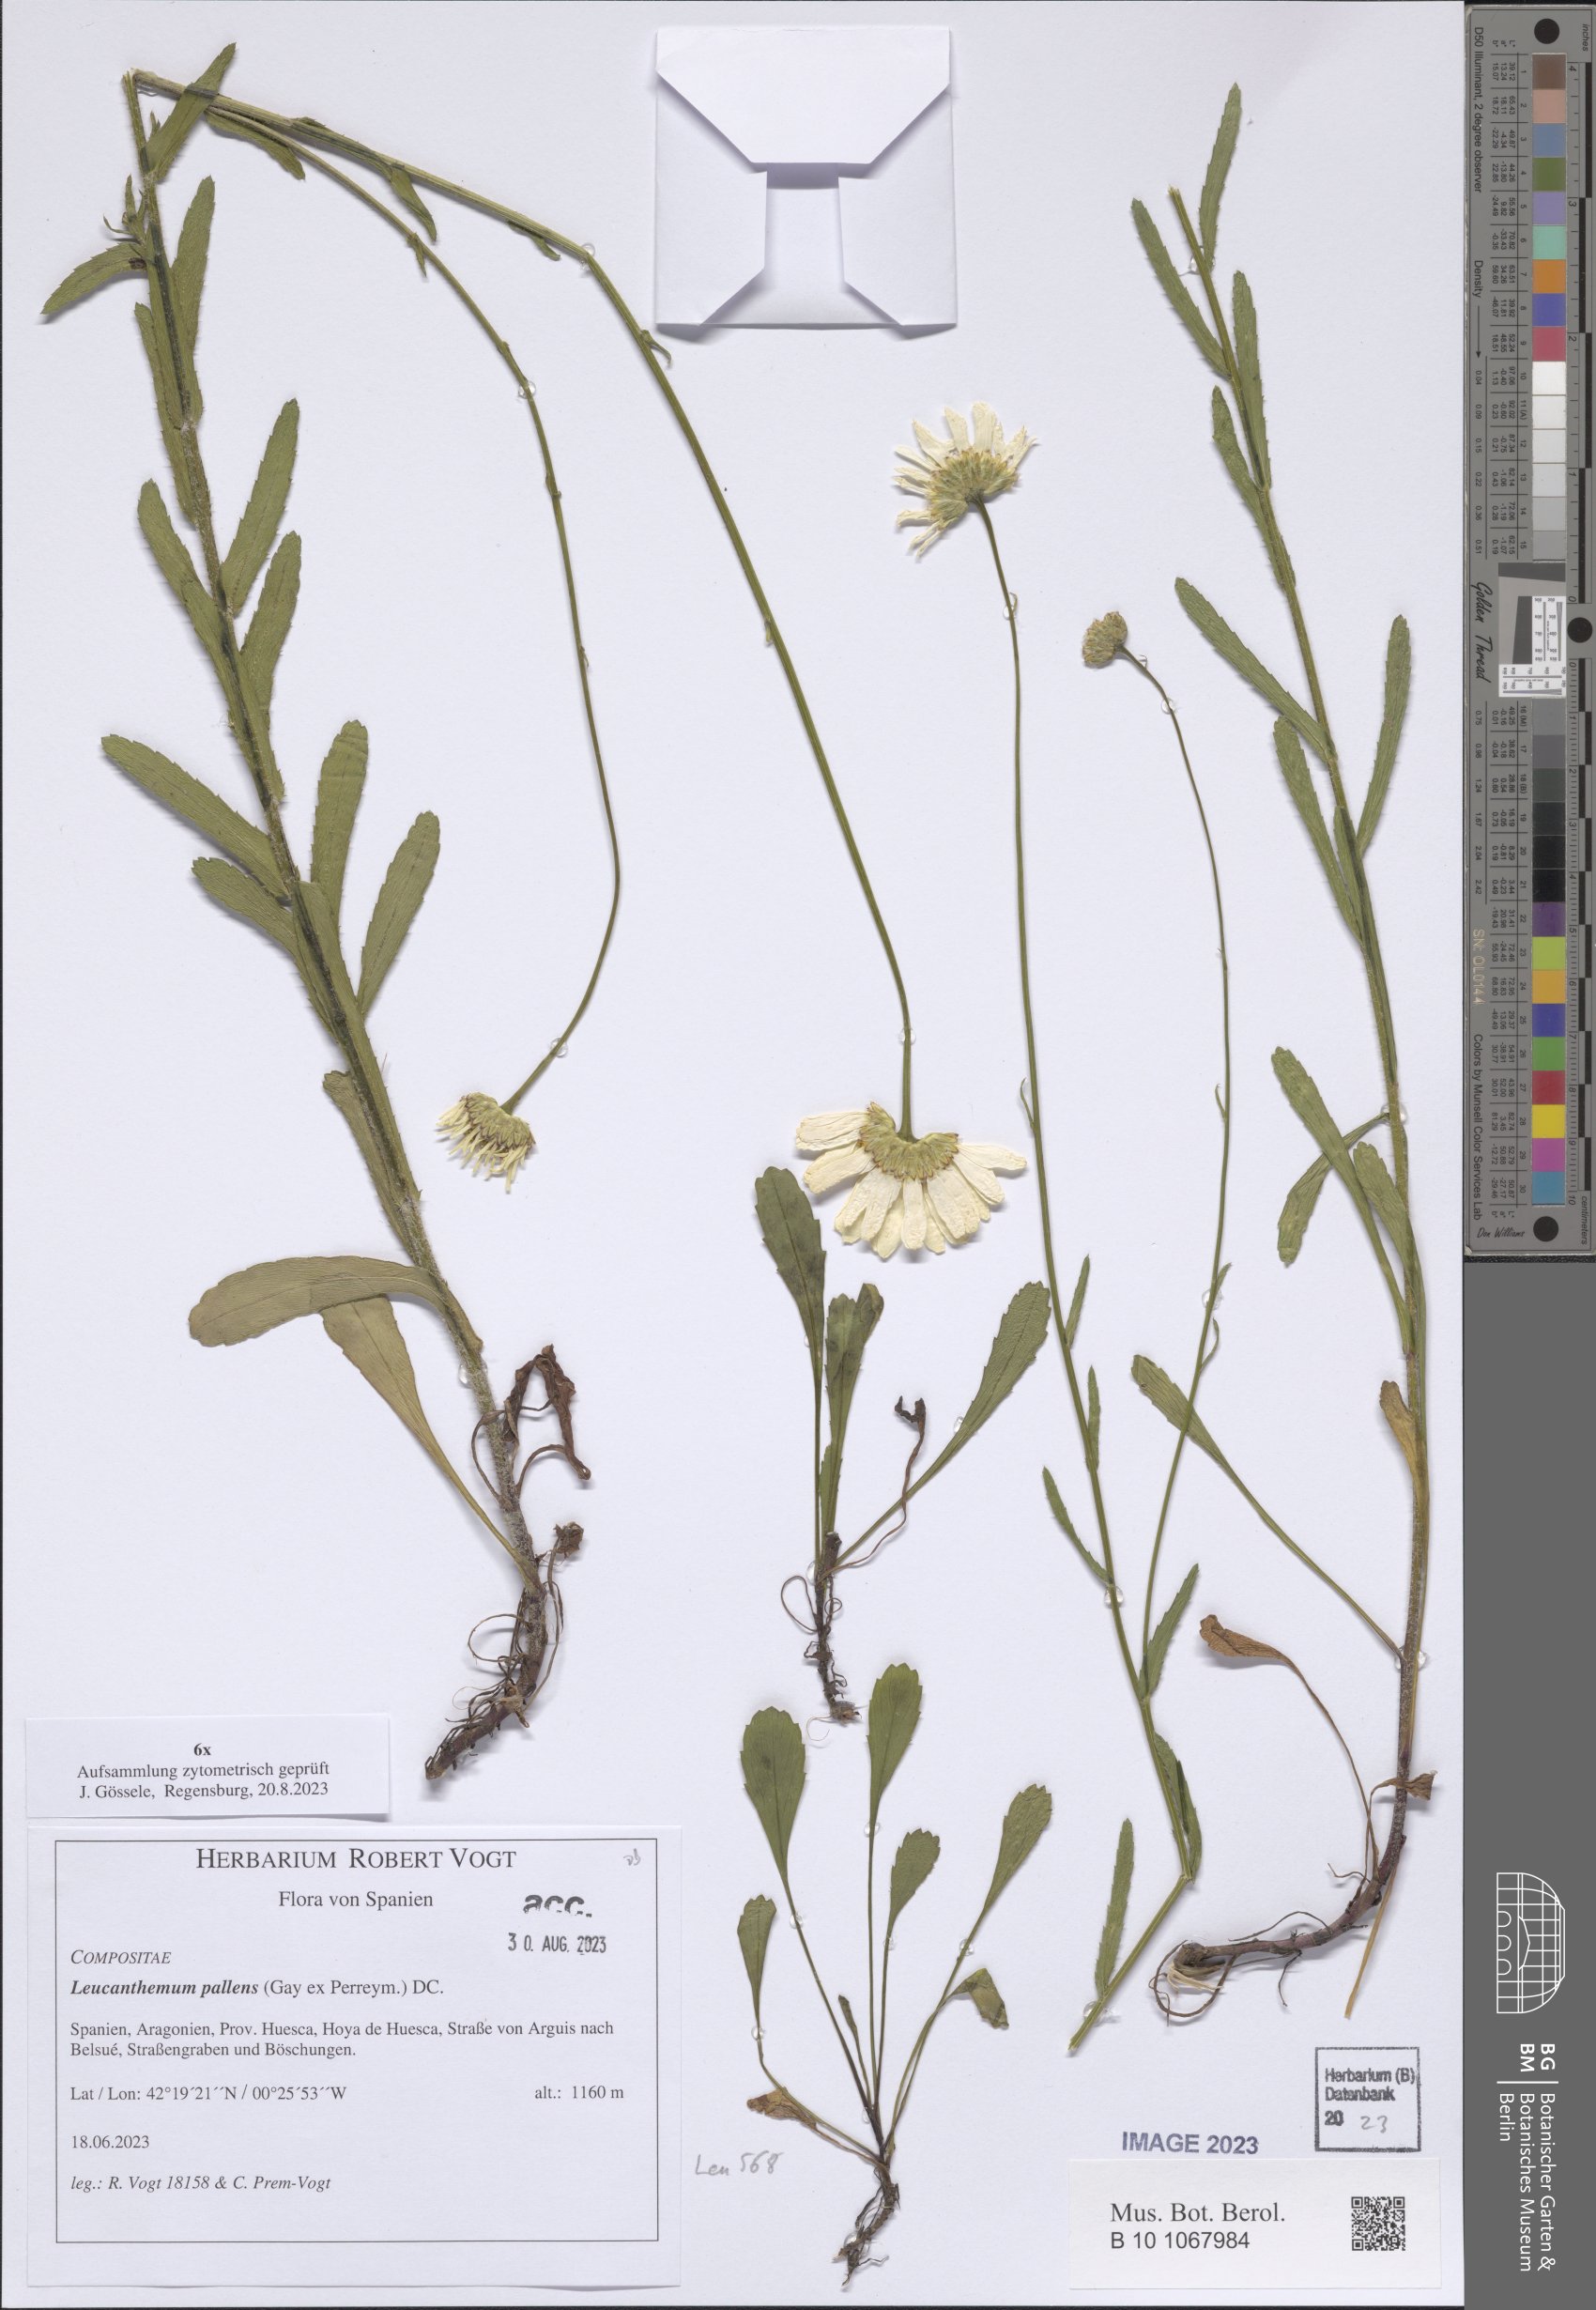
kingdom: Plantae
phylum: Tracheophyta
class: Magnoliopsida
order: Asterales
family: Asteraceae
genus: Leucanthemum
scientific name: Leucanthemum pallens
